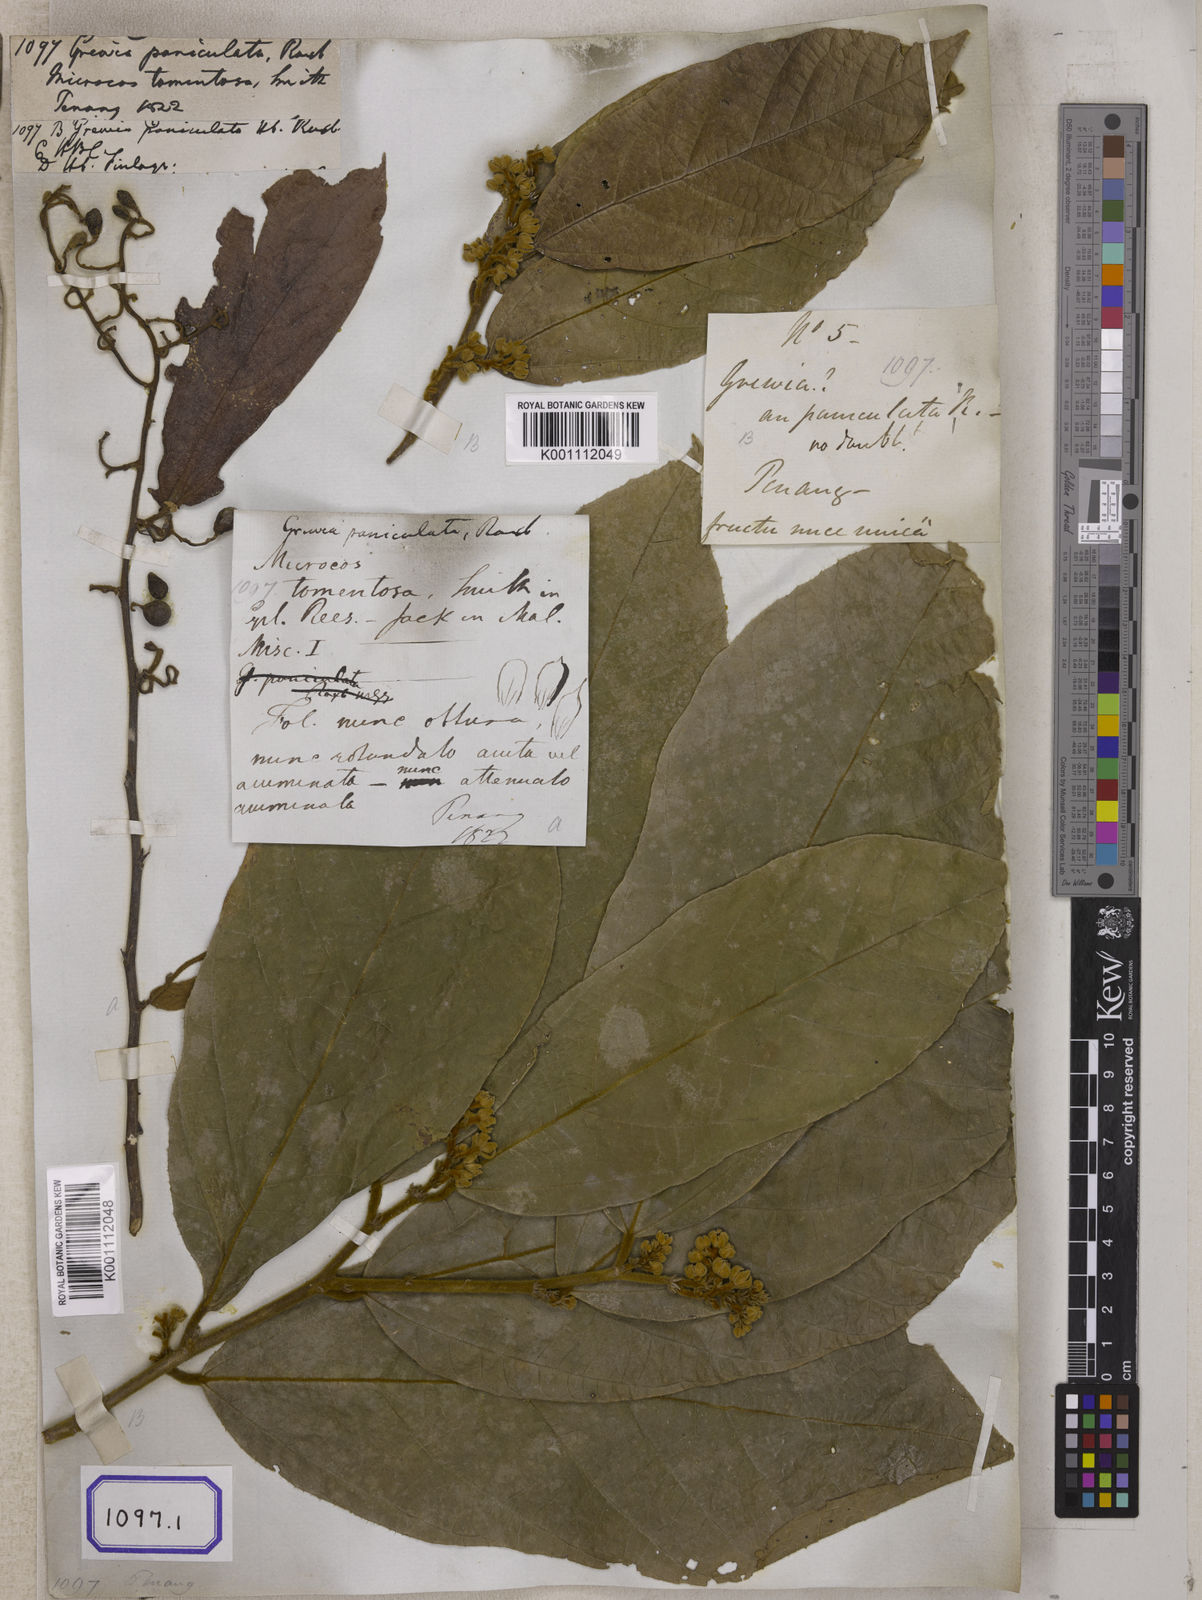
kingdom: Plantae
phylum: Tracheophyta
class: Magnoliopsida
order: Malvales
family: Malvaceae
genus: Grewia
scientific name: Grewia
